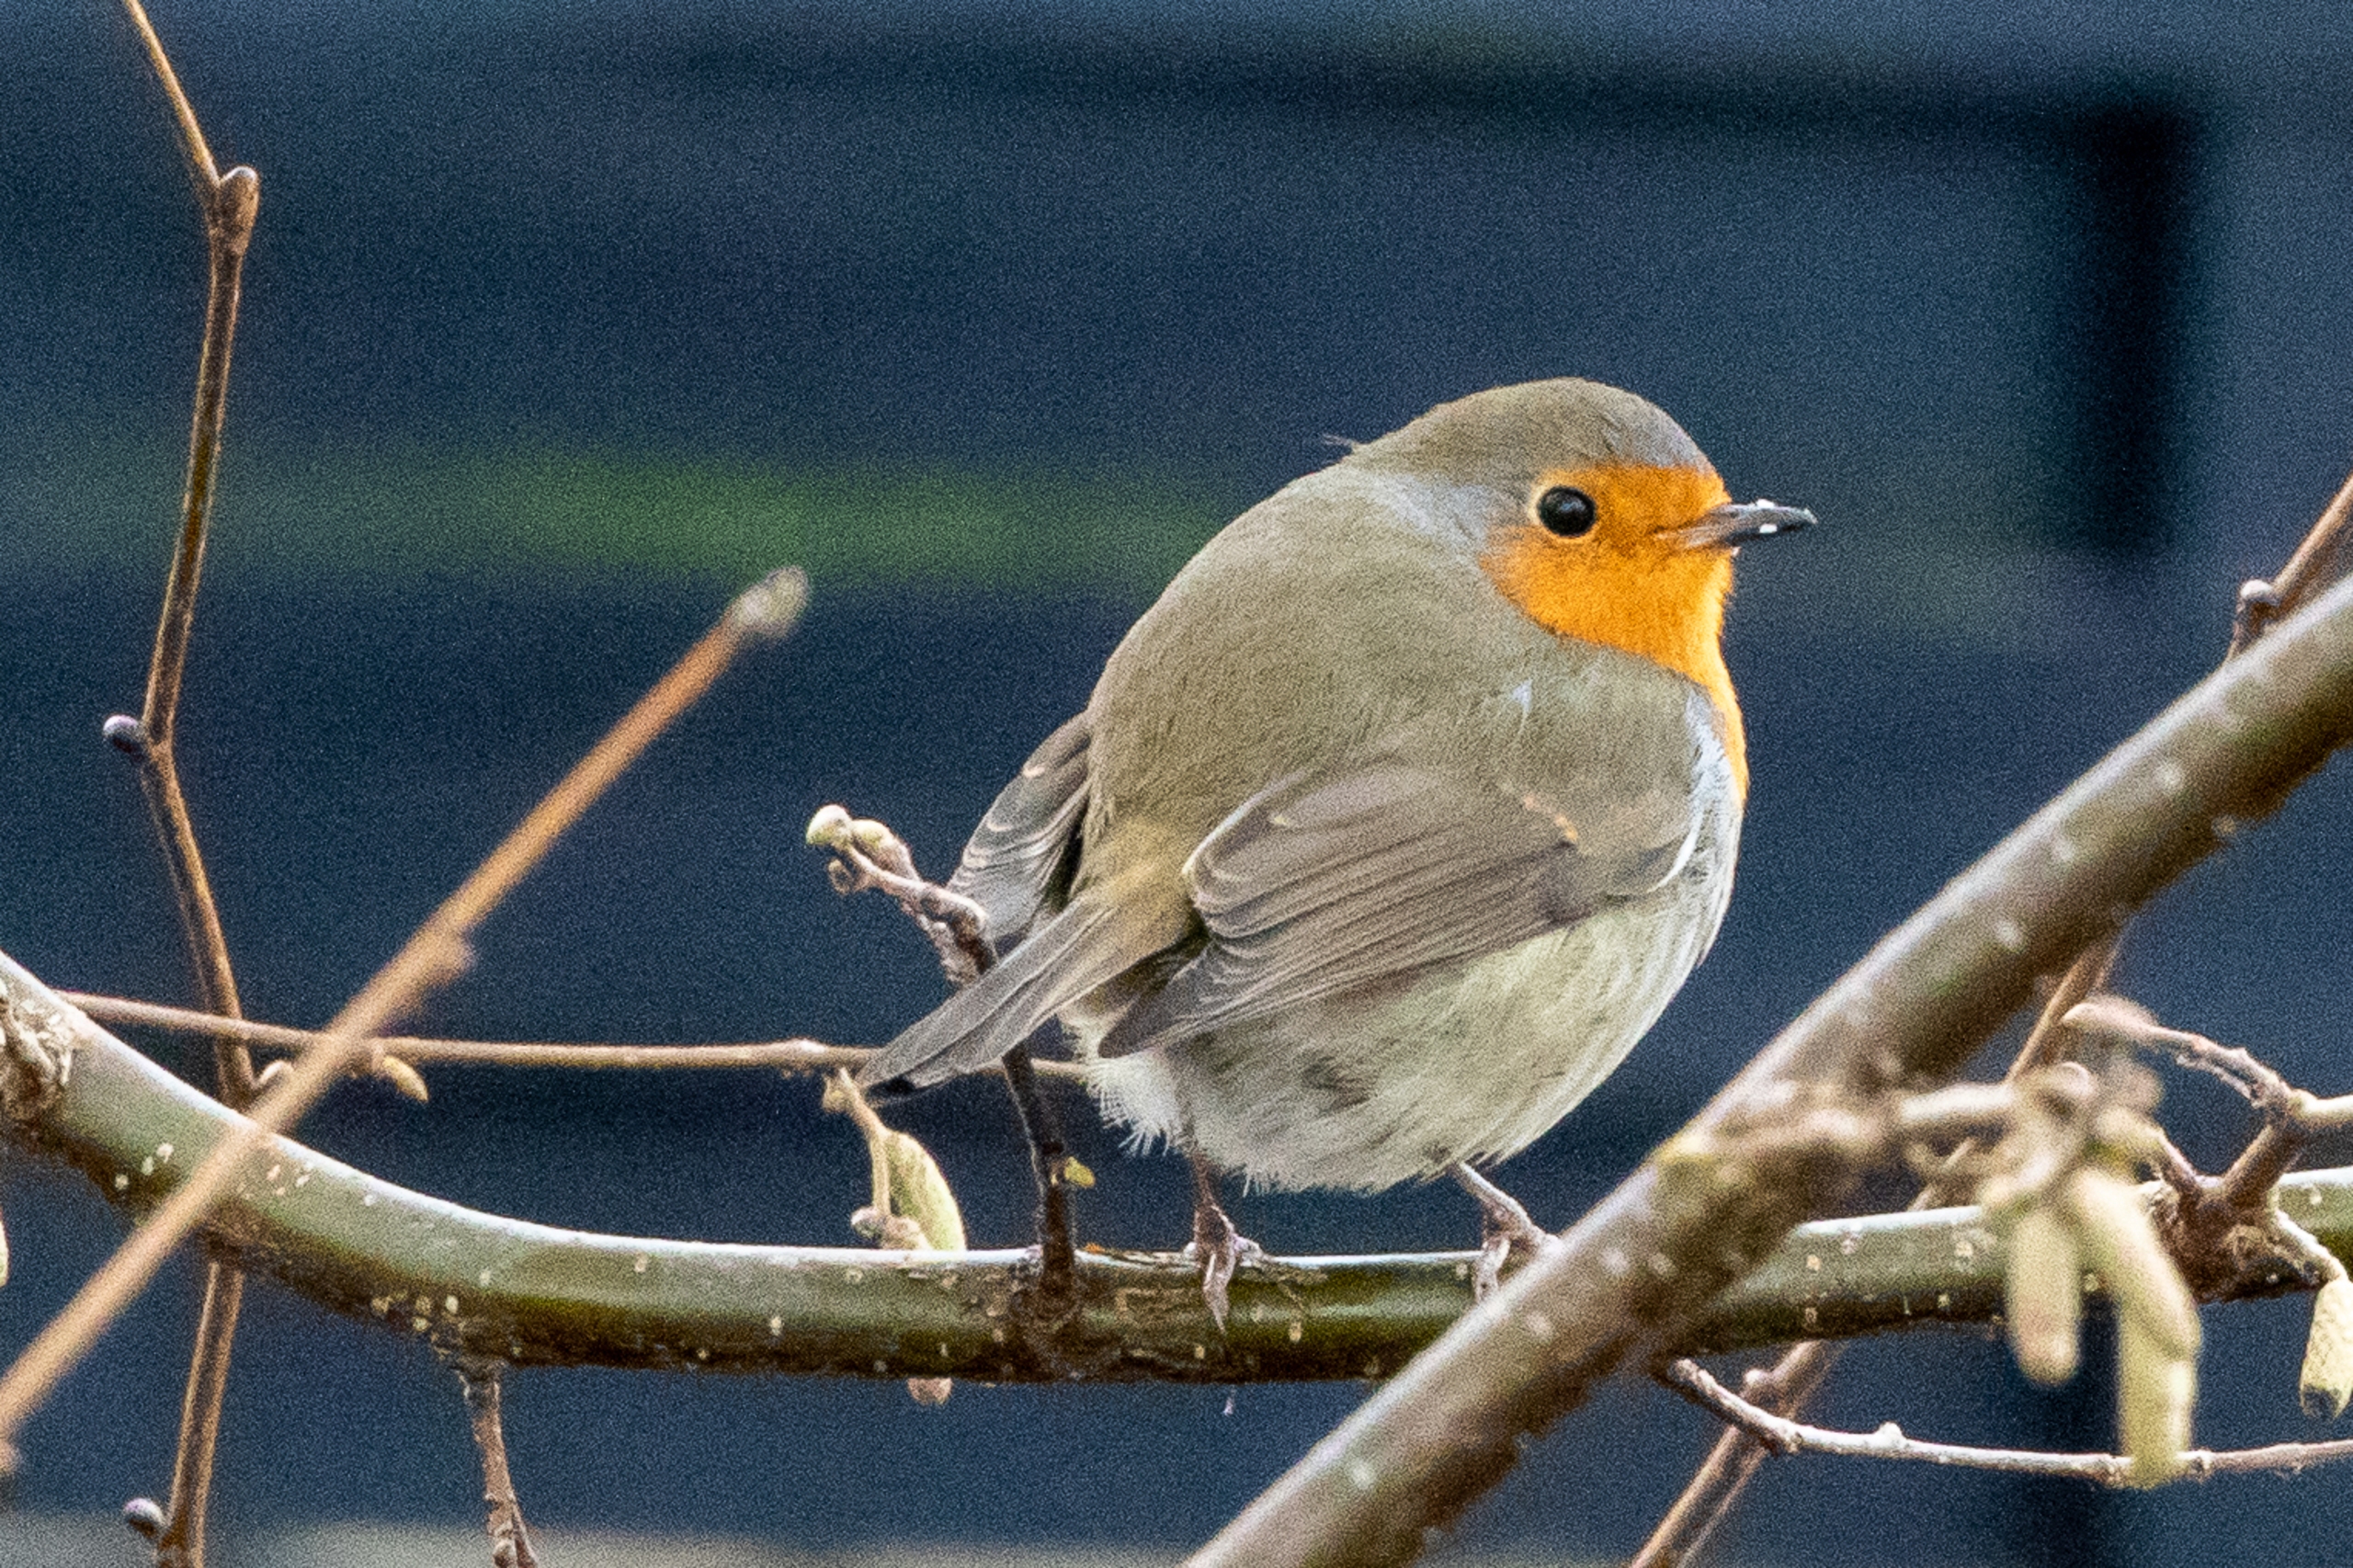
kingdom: Animalia
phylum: Chordata
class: Aves
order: Passeriformes
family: Muscicapidae
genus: Erithacus
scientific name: Erithacus rubecula
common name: Rødhals/rødkælk
